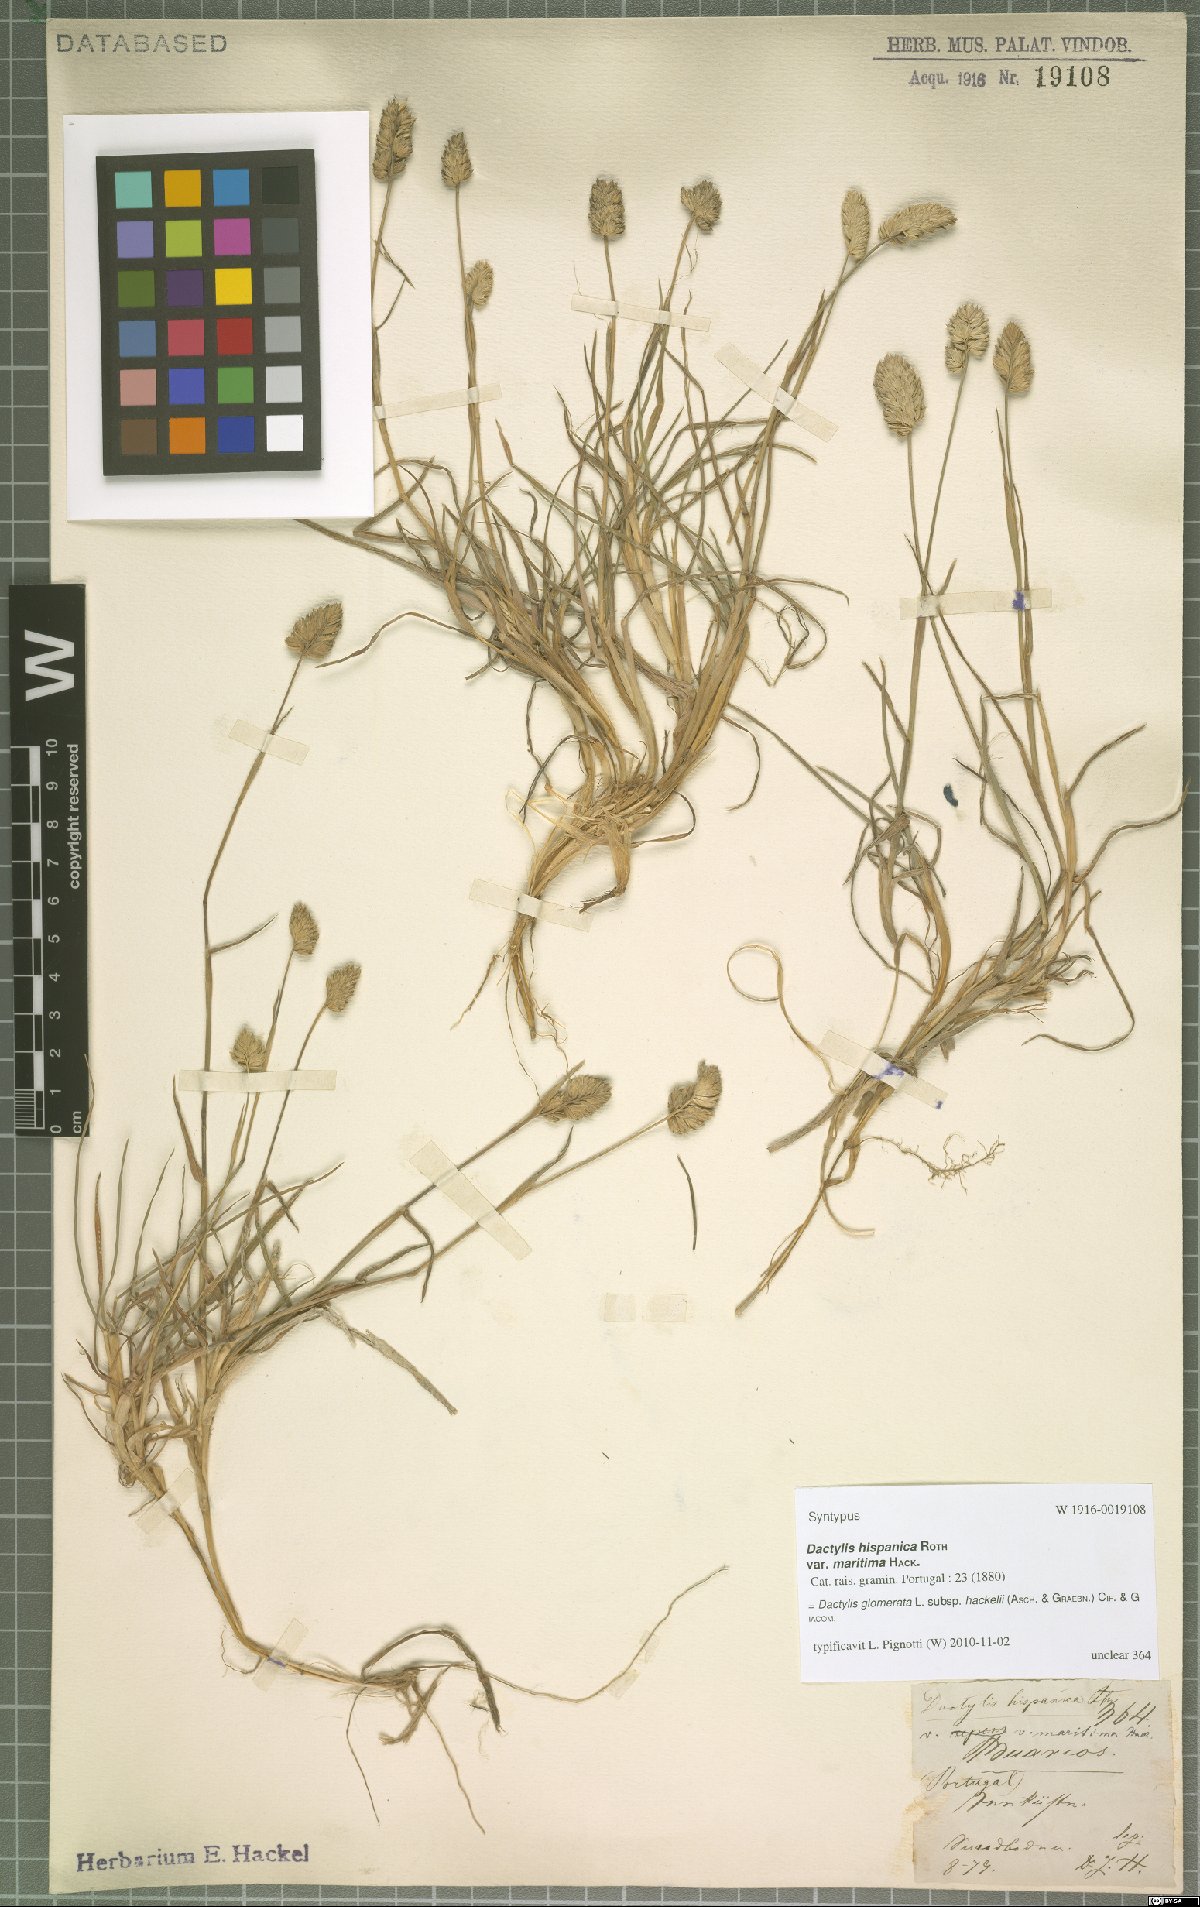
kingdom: Plantae
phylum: Tracheophyta
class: Liliopsida
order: Poales
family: Poaceae
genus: Dactylis
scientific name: Dactylis glomerata
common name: Orchardgrass
